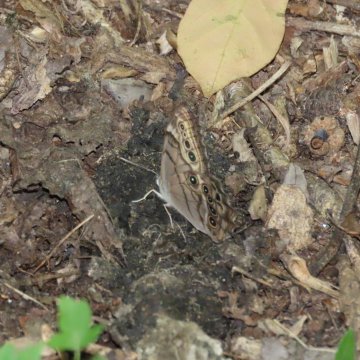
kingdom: Animalia
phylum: Arthropoda
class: Insecta
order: Lepidoptera
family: Nymphalidae
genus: Lethe
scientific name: Lethe anthedon
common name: Northern Pearly-Eye
